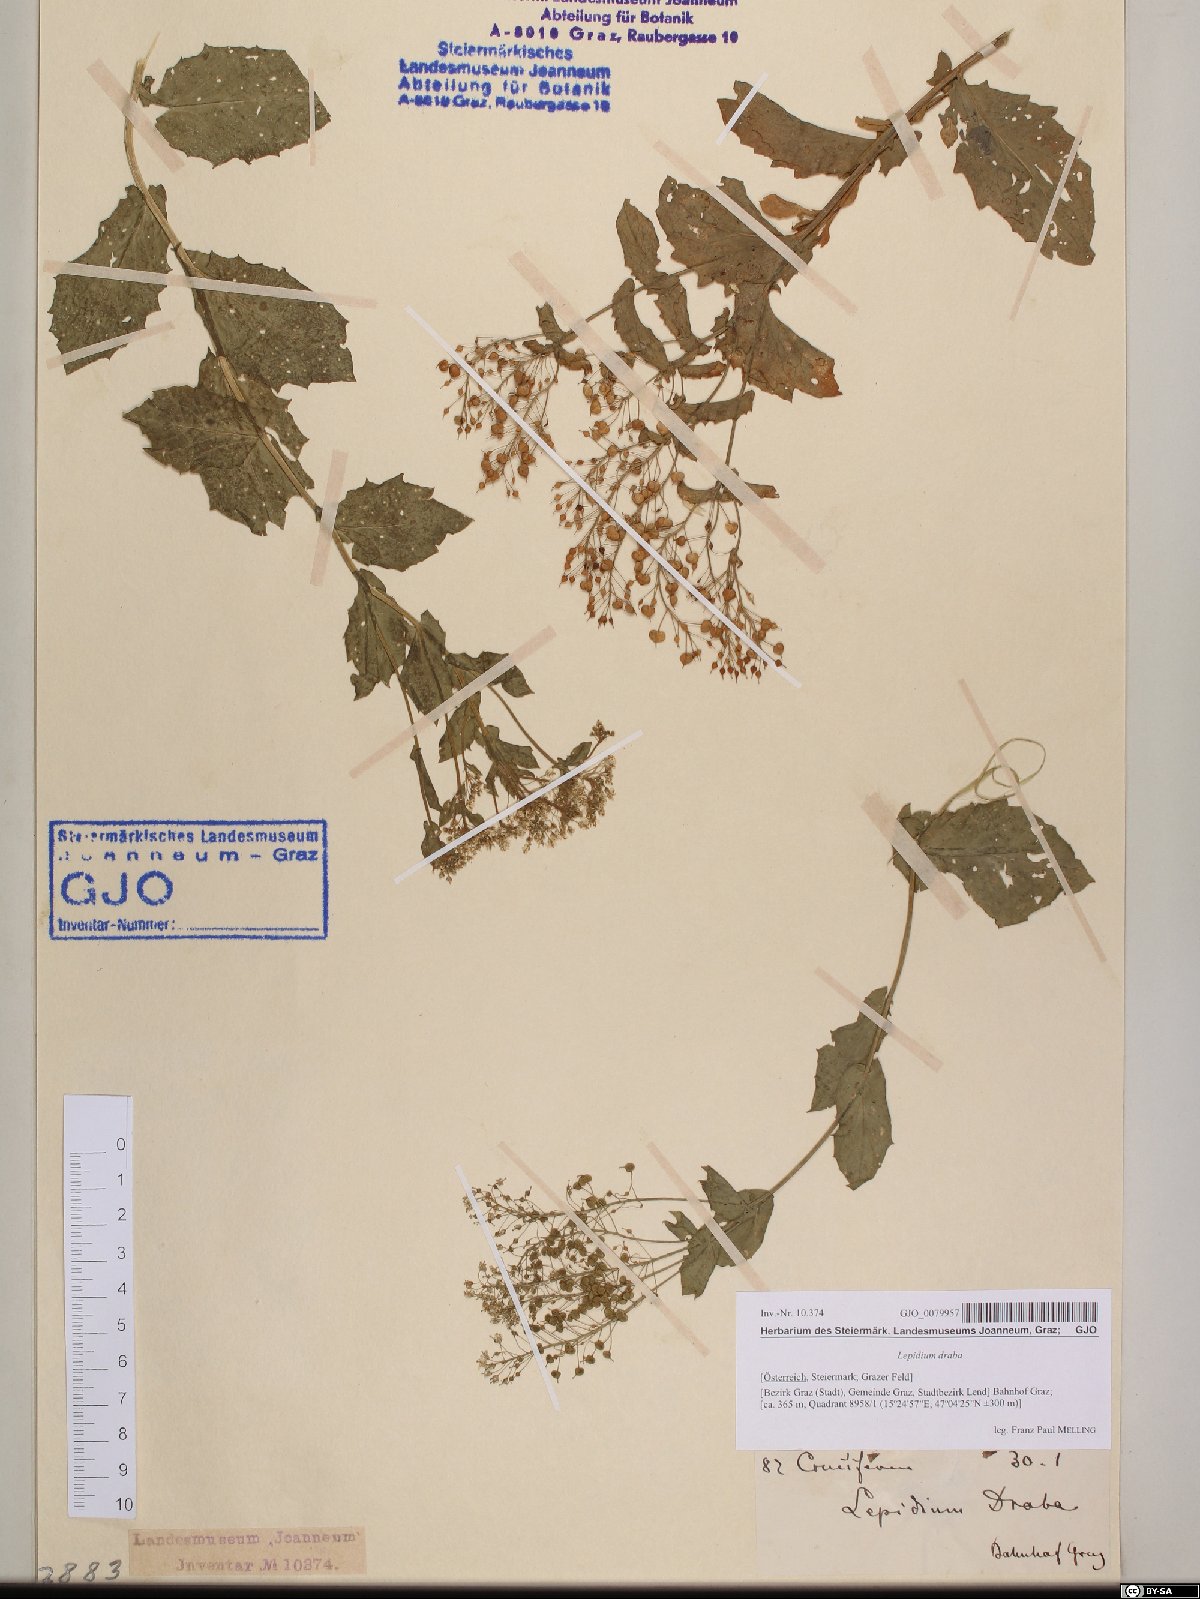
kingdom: Plantae
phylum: Tracheophyta
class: Magnoliopsida
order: Brassicales
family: Brassicaceae
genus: Lepidium
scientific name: Lepidium draba
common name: Hoary cress
